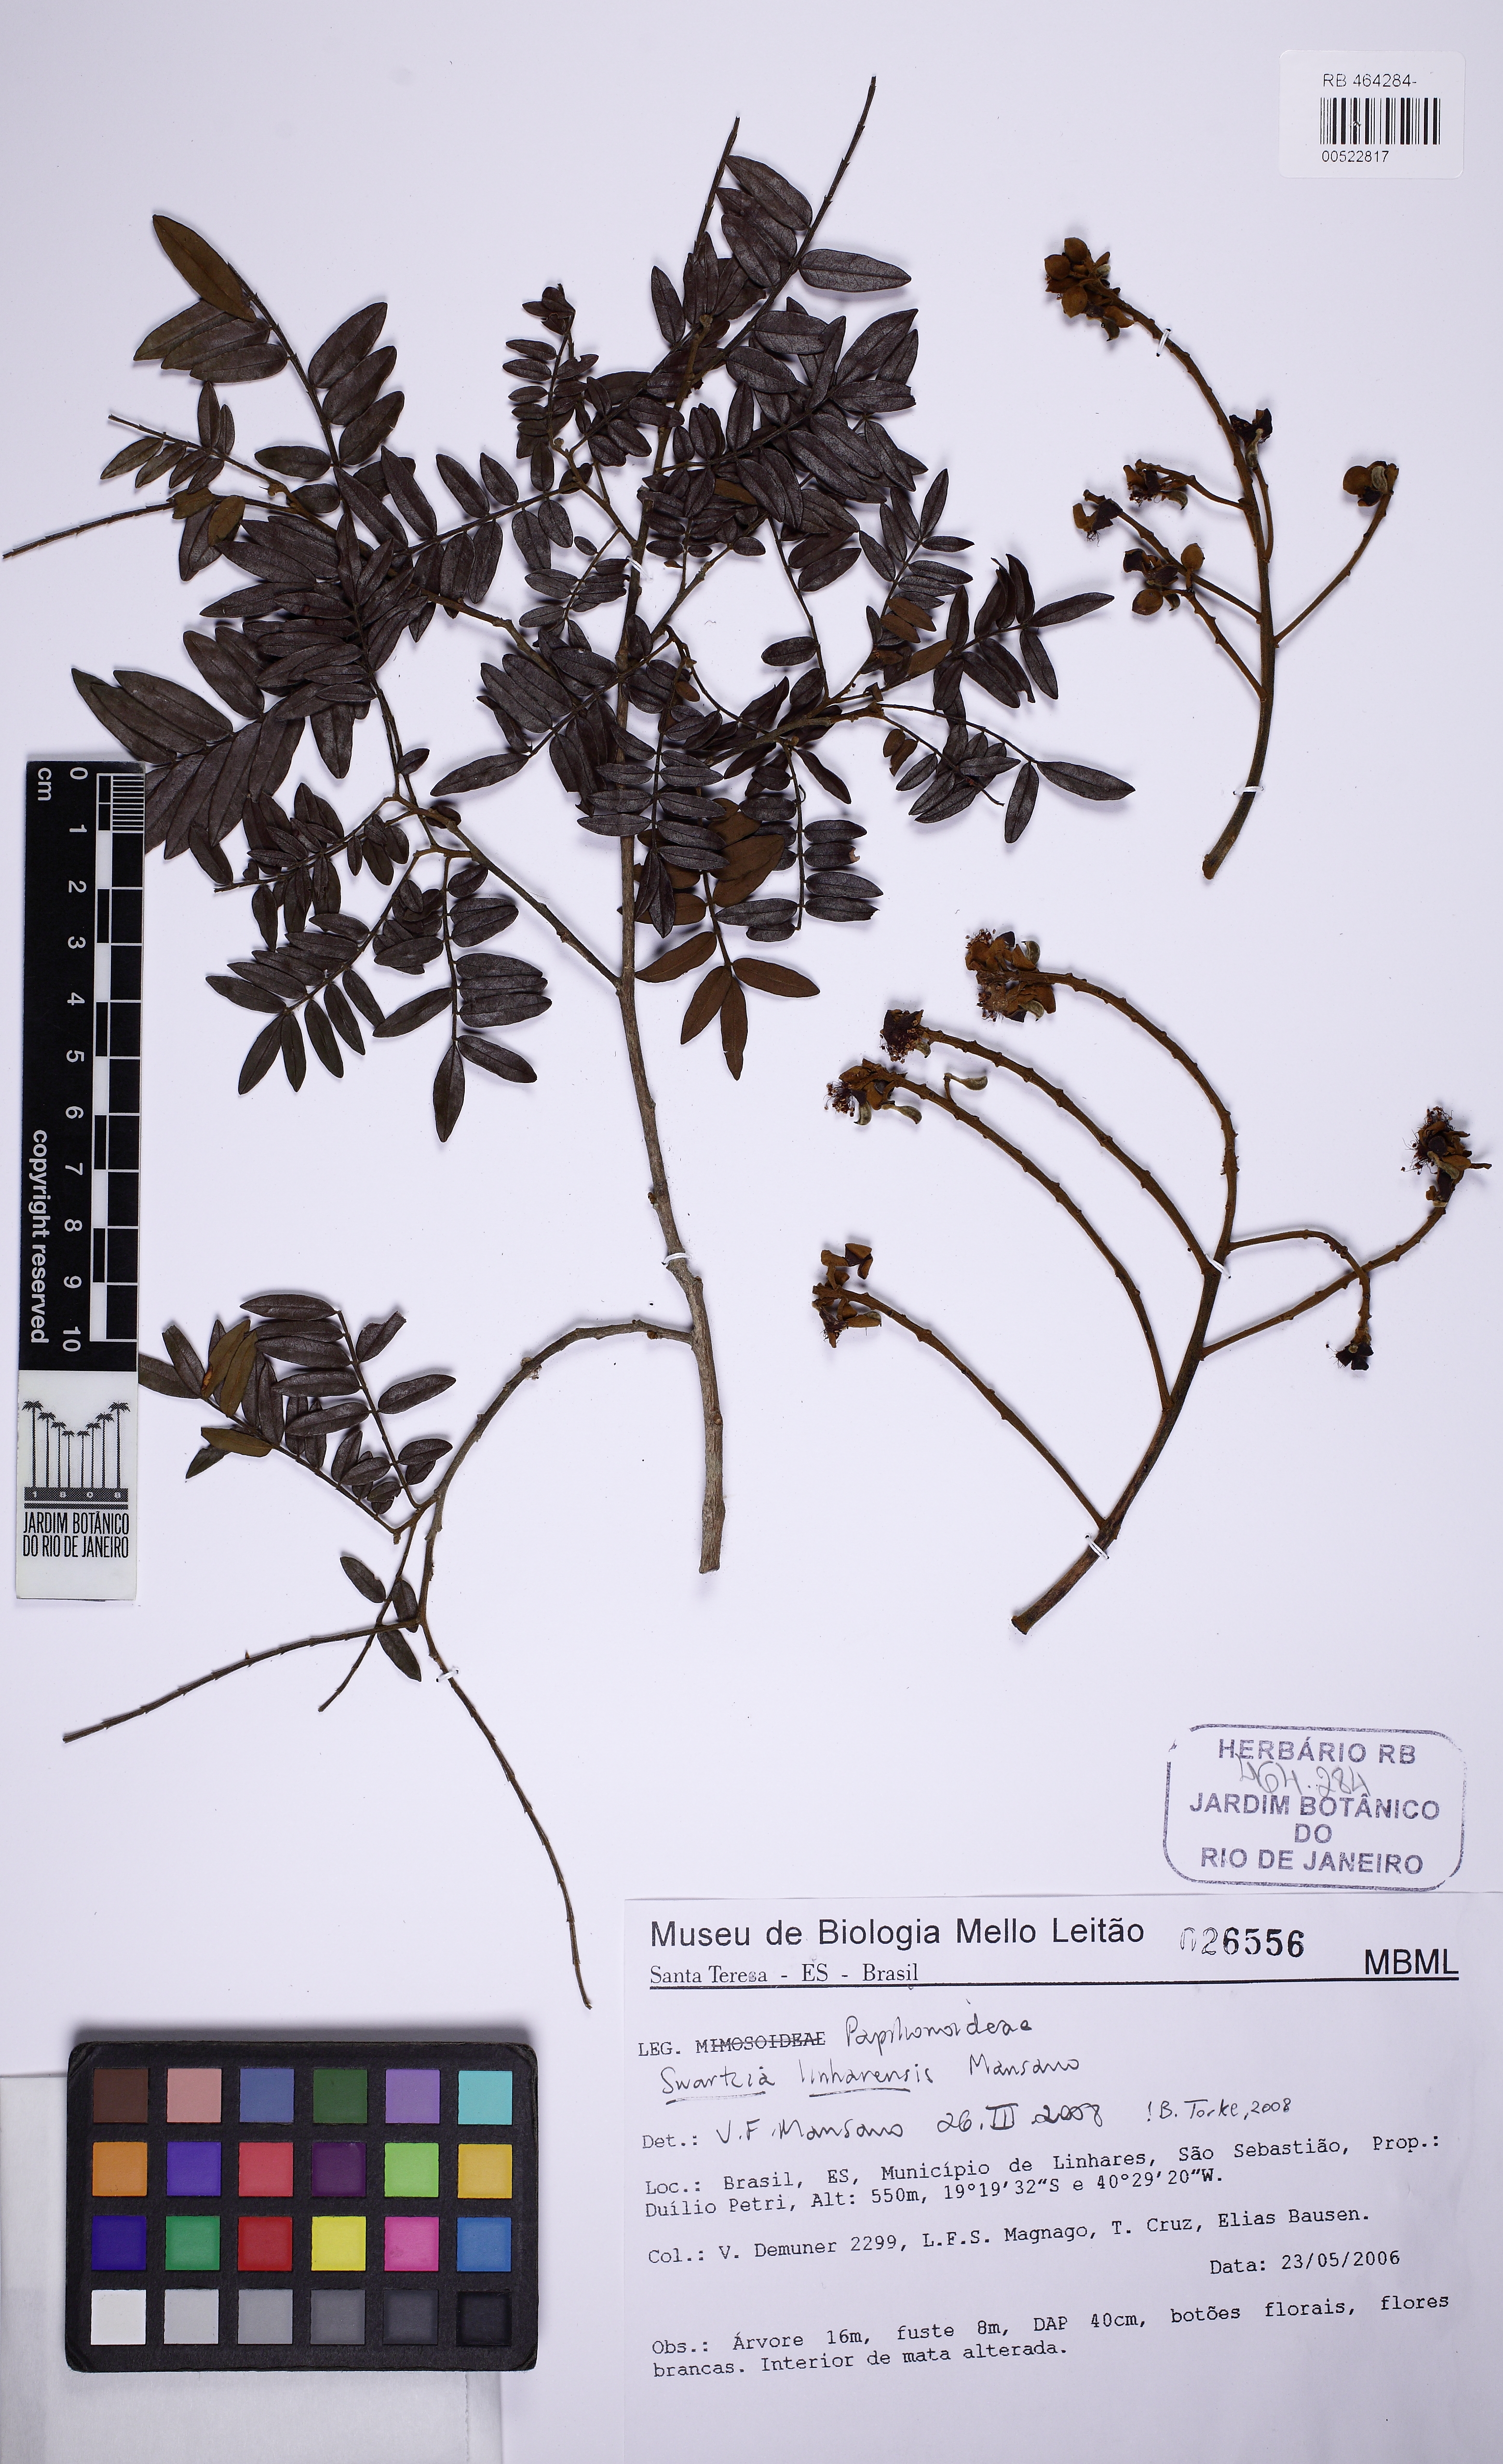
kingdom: Plantae
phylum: Tracheophyta
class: Magnoliopsida
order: Fabales
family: Fabaceae
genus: Swartzia
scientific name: Swartzia linharensis
